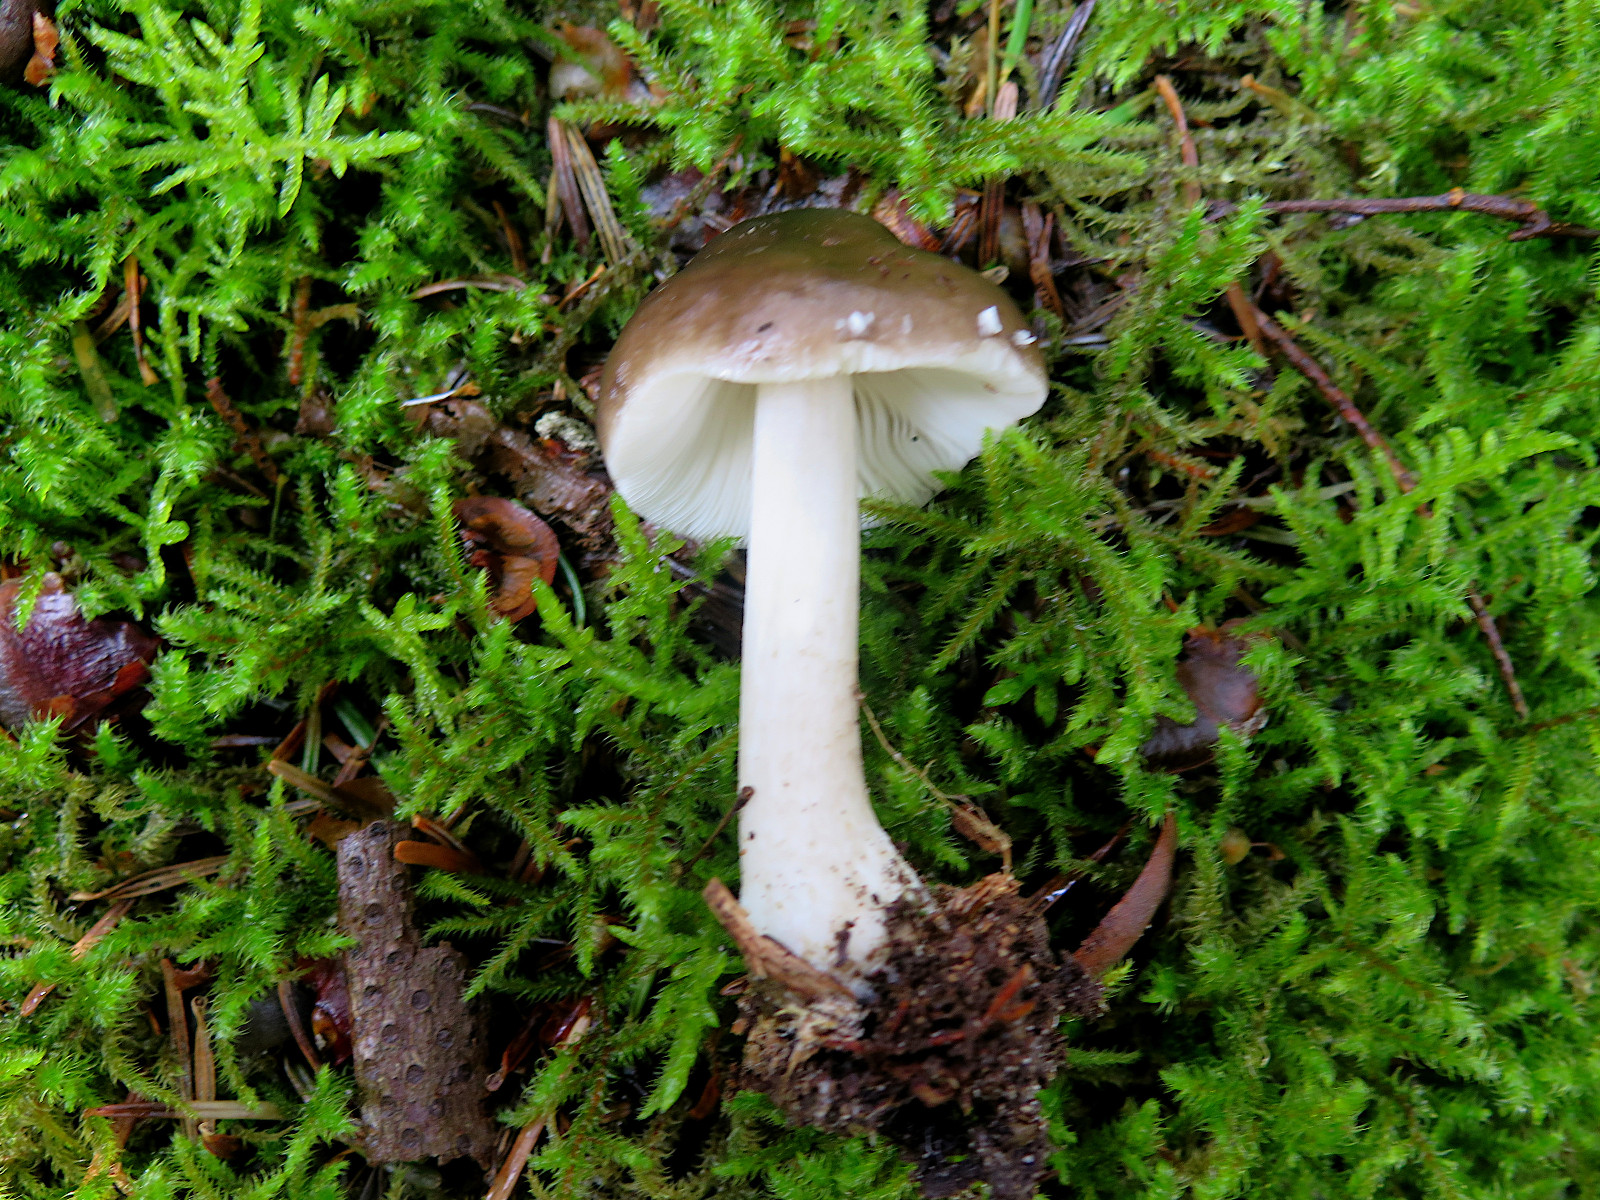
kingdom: Fungi
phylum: Basidiomycota
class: Agaricomycetes
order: Agaricales
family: Pluteaceae
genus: Pluteus
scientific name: Pluteus primus
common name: tidlig skærmhat
